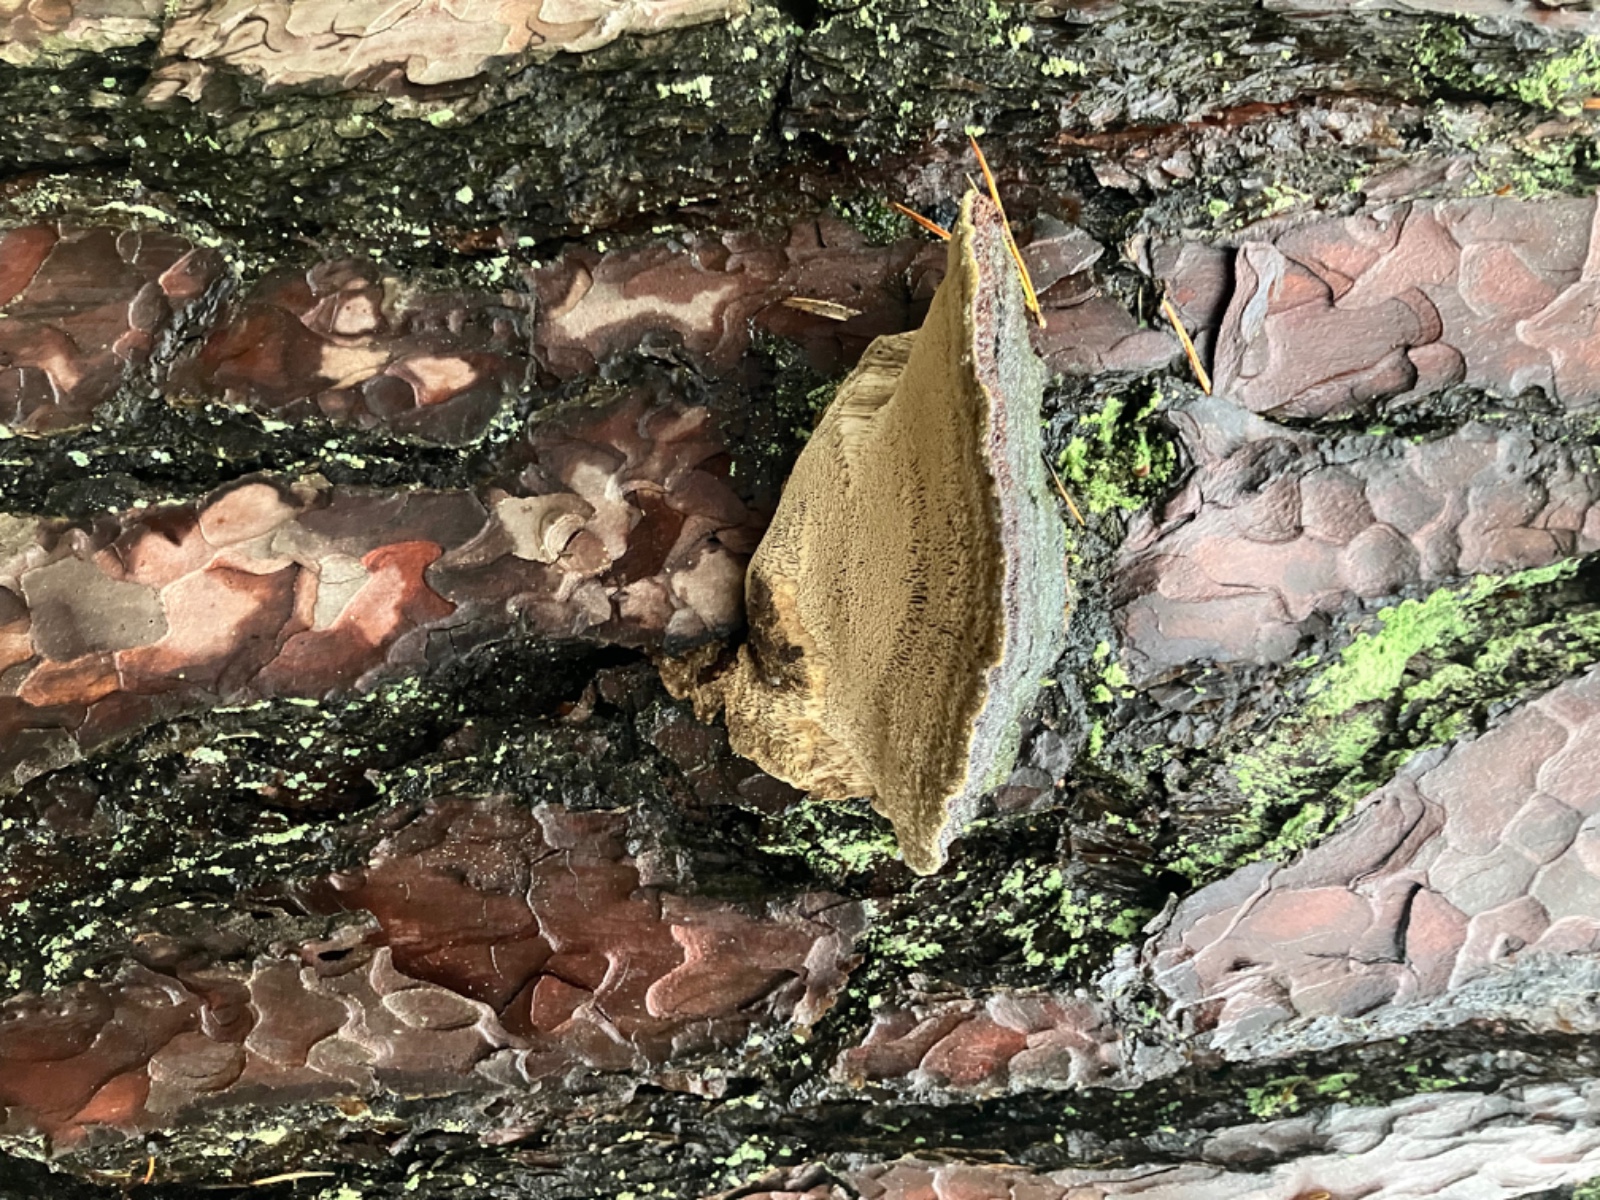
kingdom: Fungi
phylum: Basidiomycota
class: Agaricomycetes
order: Hymenochaetales
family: Hymenochaetaceae
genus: Porodaedalea
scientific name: Porodaedalea pini
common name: fyrre-ildporesvamp
